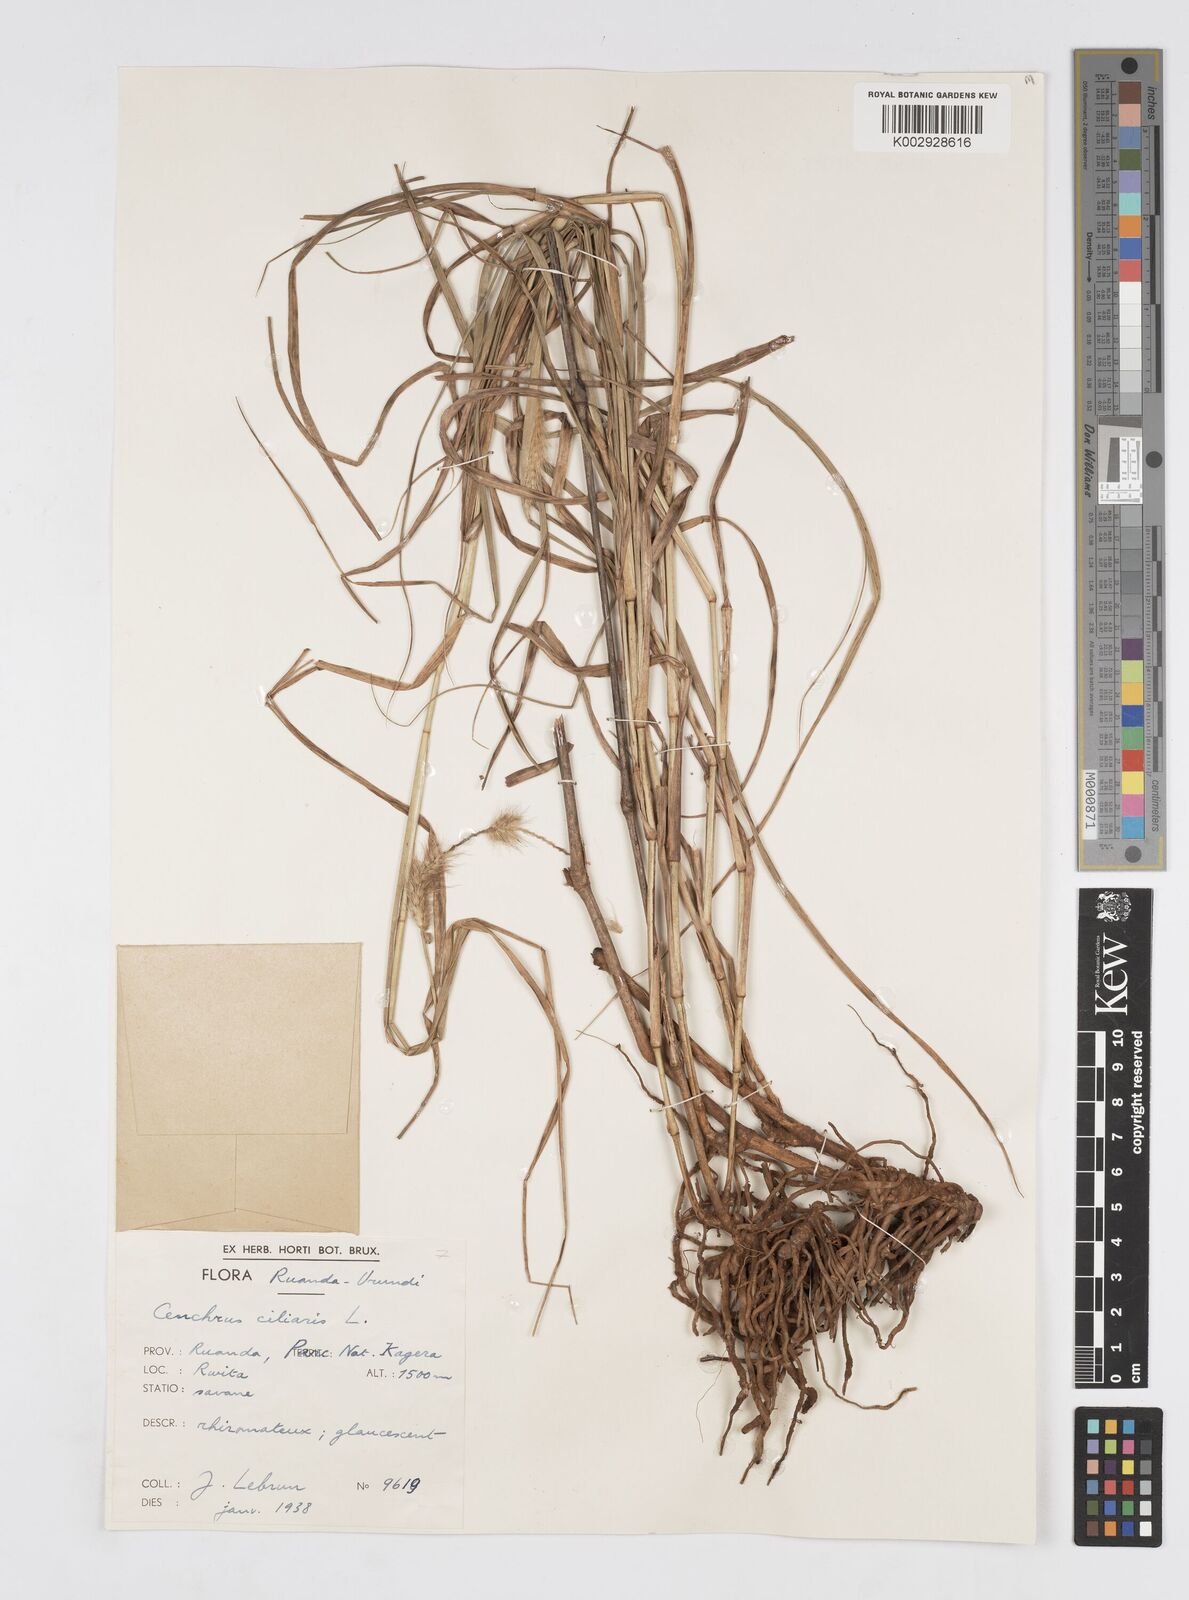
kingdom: Plantae
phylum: Tracheophyta
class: Liliopsida
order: Poales
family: Poaceae
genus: Cenchrus
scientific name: Cenchrus ciliaris
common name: Buffelgrass
